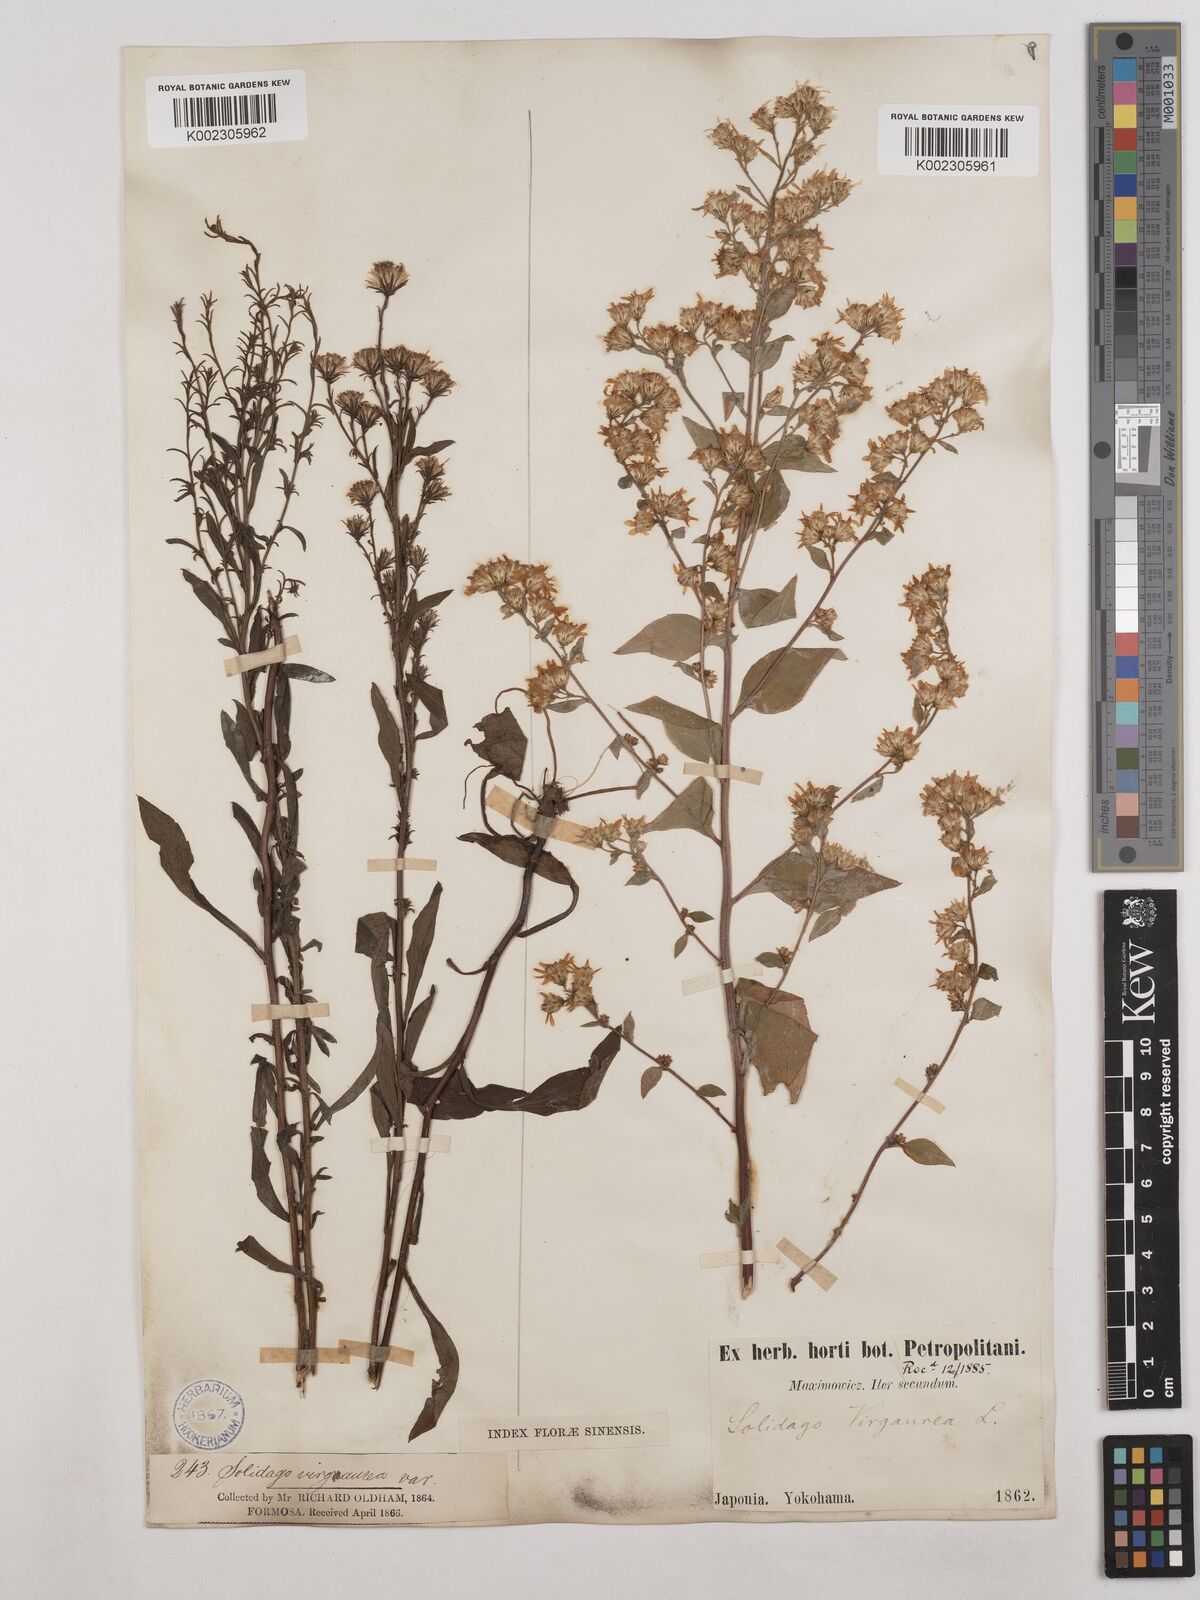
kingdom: Plantae
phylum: Tracheophyta
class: Magnoliopsida
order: Asterales
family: Asteraceae
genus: Solidago
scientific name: Solidago virgaurea
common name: Goldenrod
